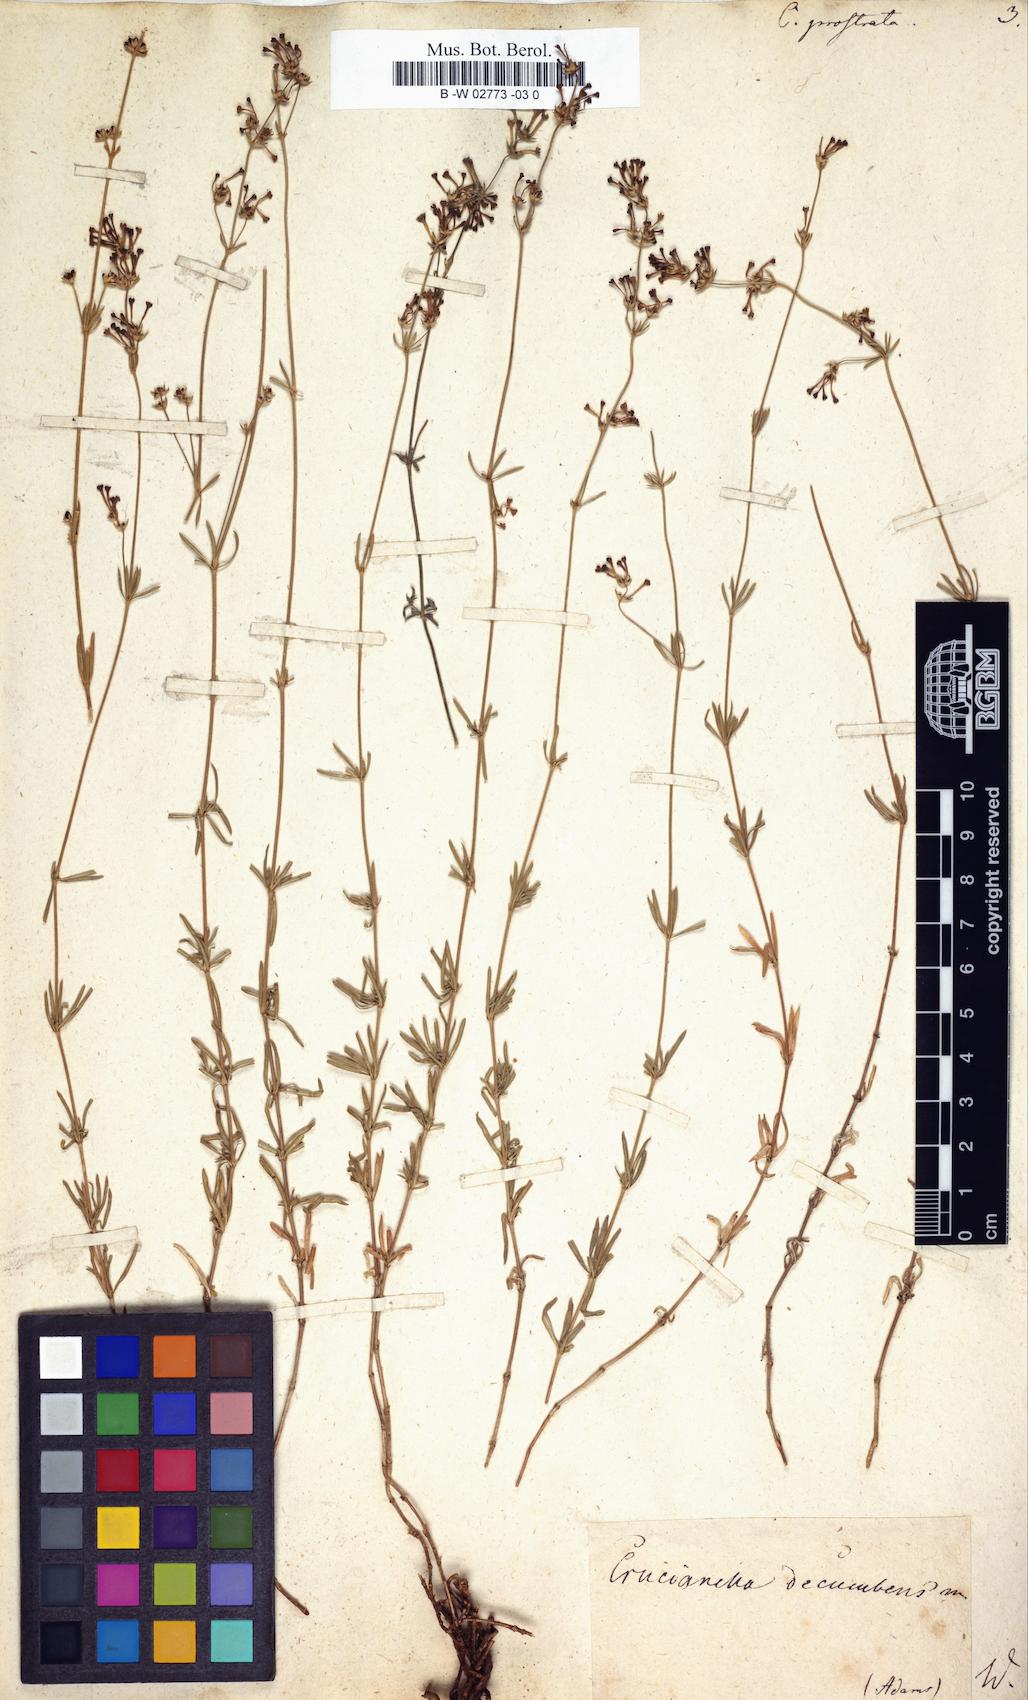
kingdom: Plantae
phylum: Tracheophyta
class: Magnoliopsida
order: Gentianales
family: Rubiaceae
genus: Asperula
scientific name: Asperula prostrata
